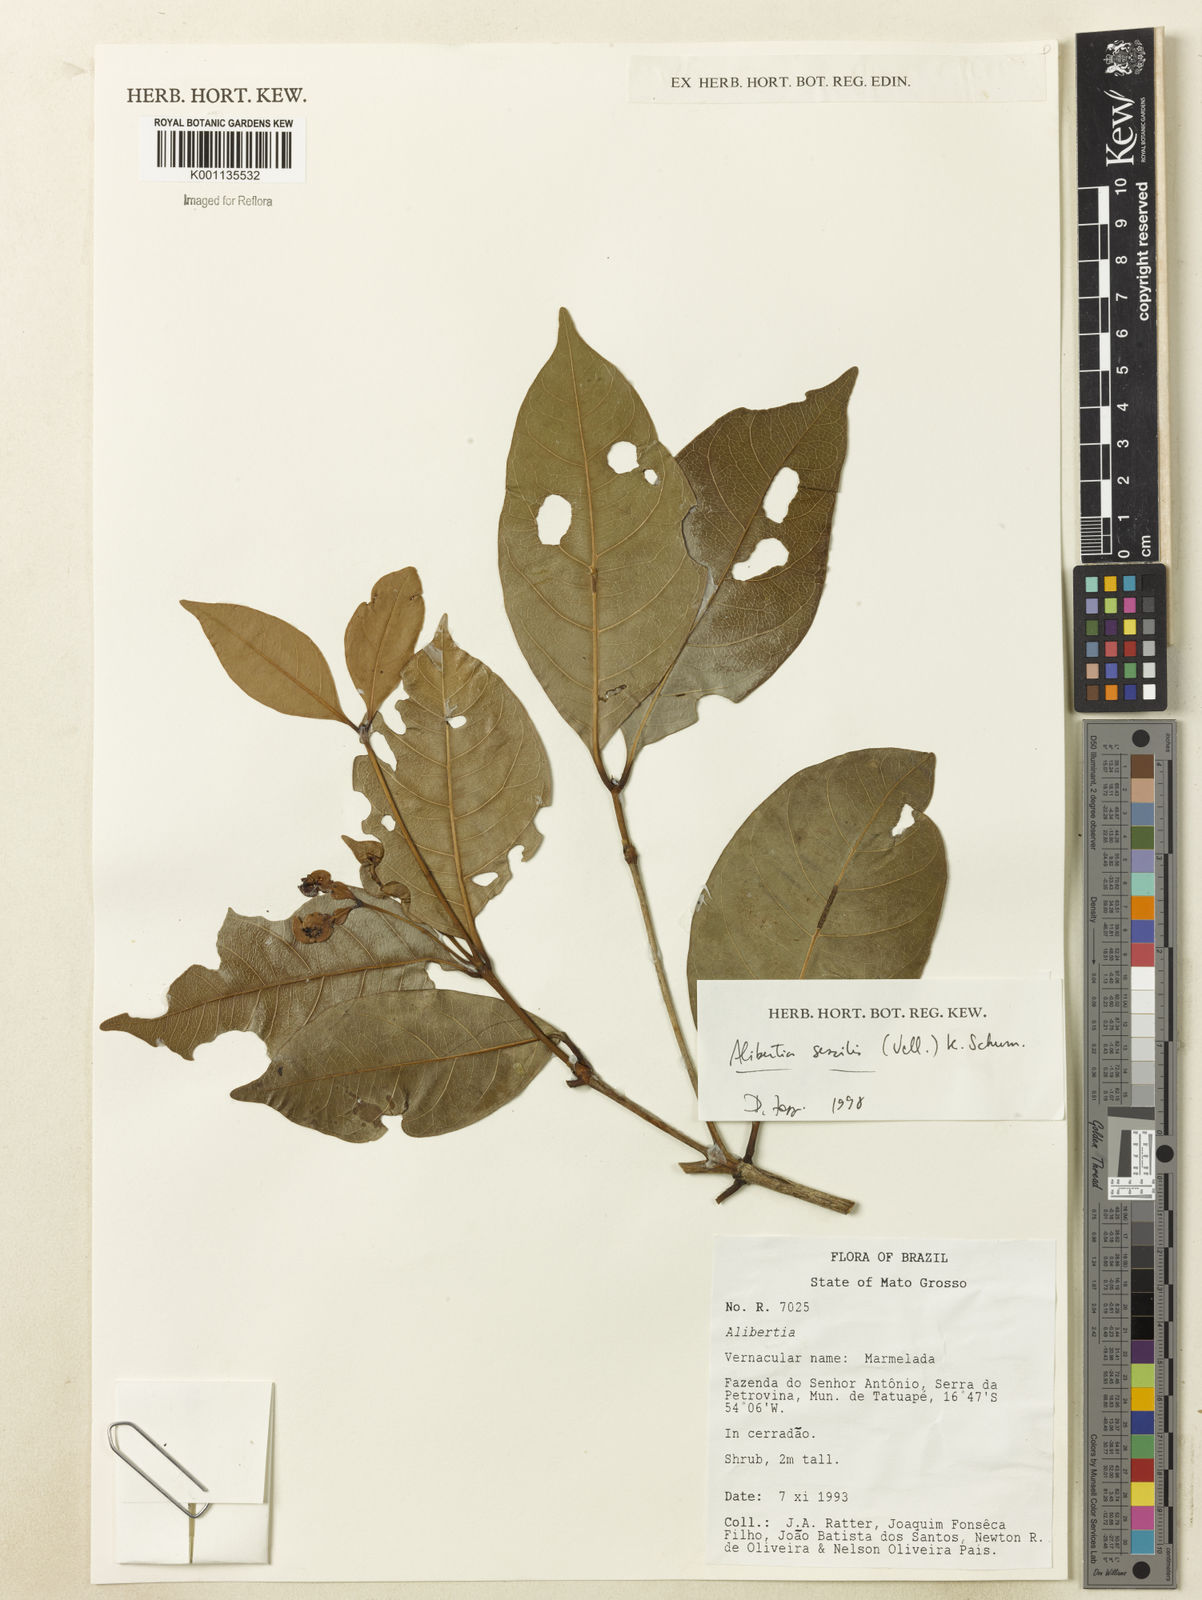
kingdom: Plantae
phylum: Tracheophyta
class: Magnoliopsida
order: Gentianales
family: Rubiaceae
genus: Cordiera
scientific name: Cordiera sessilis
